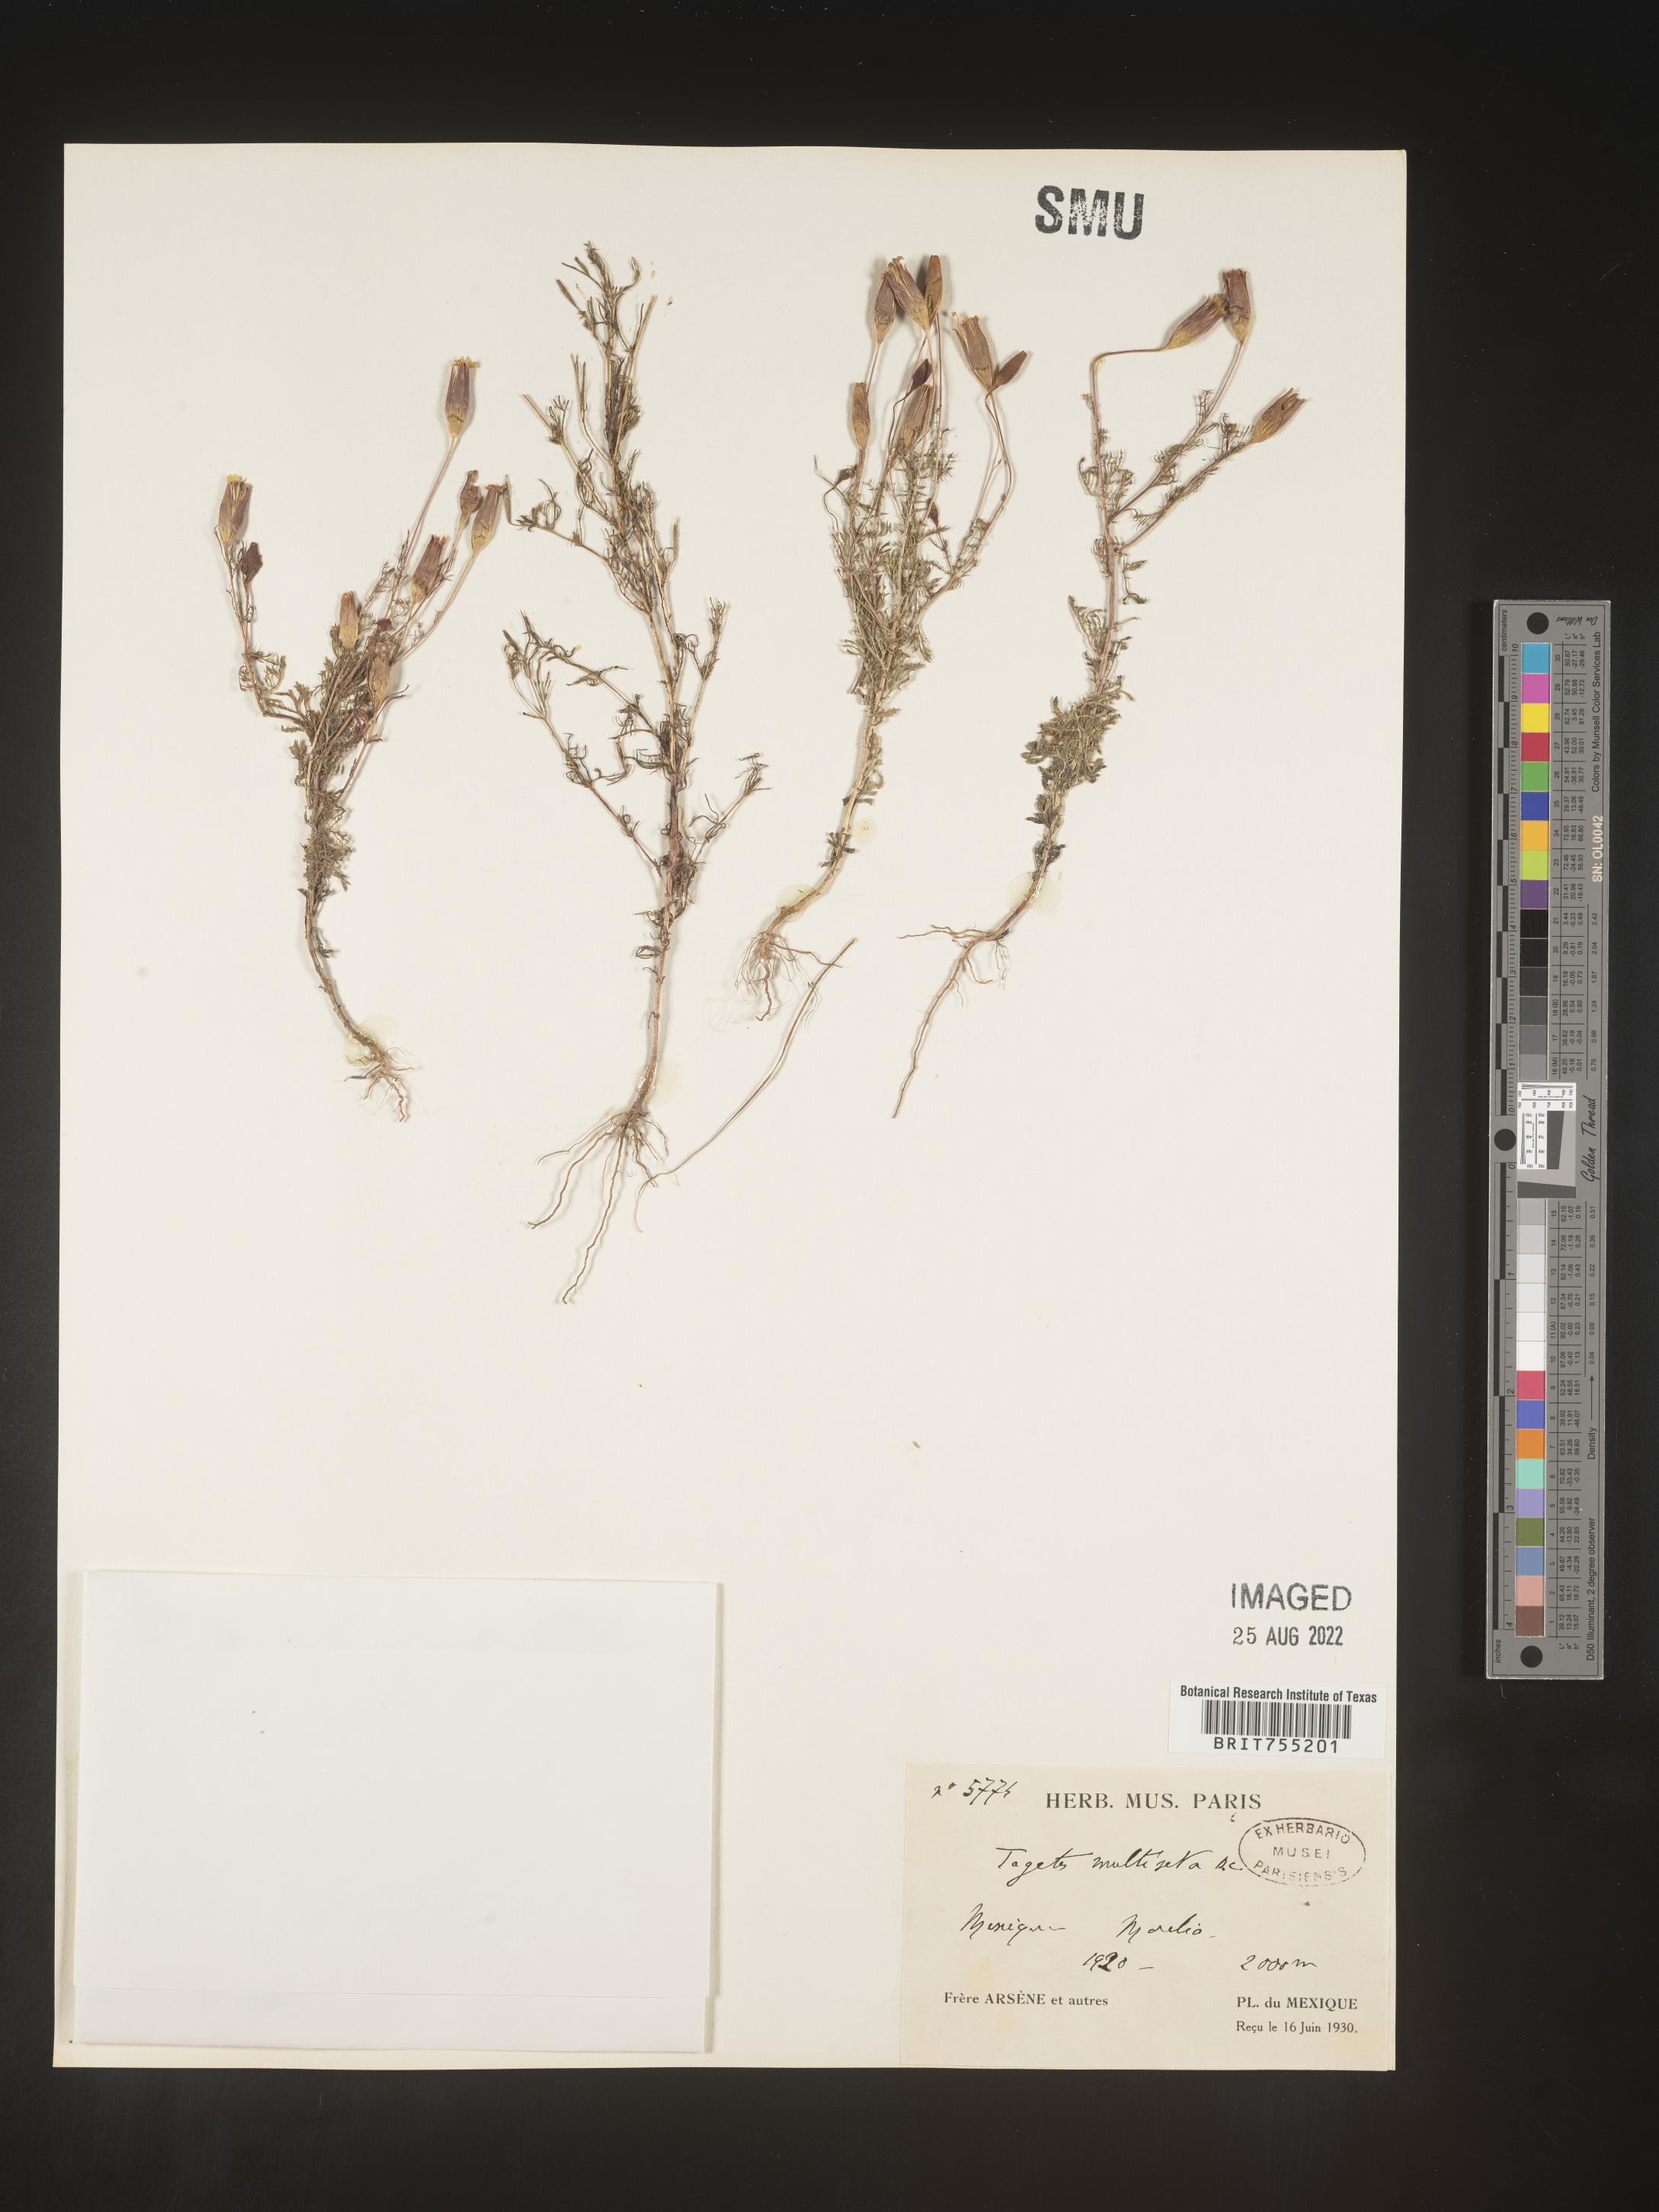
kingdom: Plantae
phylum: Tracheophyta
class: Magnoliopsida
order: Asterales
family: Asteraceae
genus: Tagetes
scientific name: Tagetes
